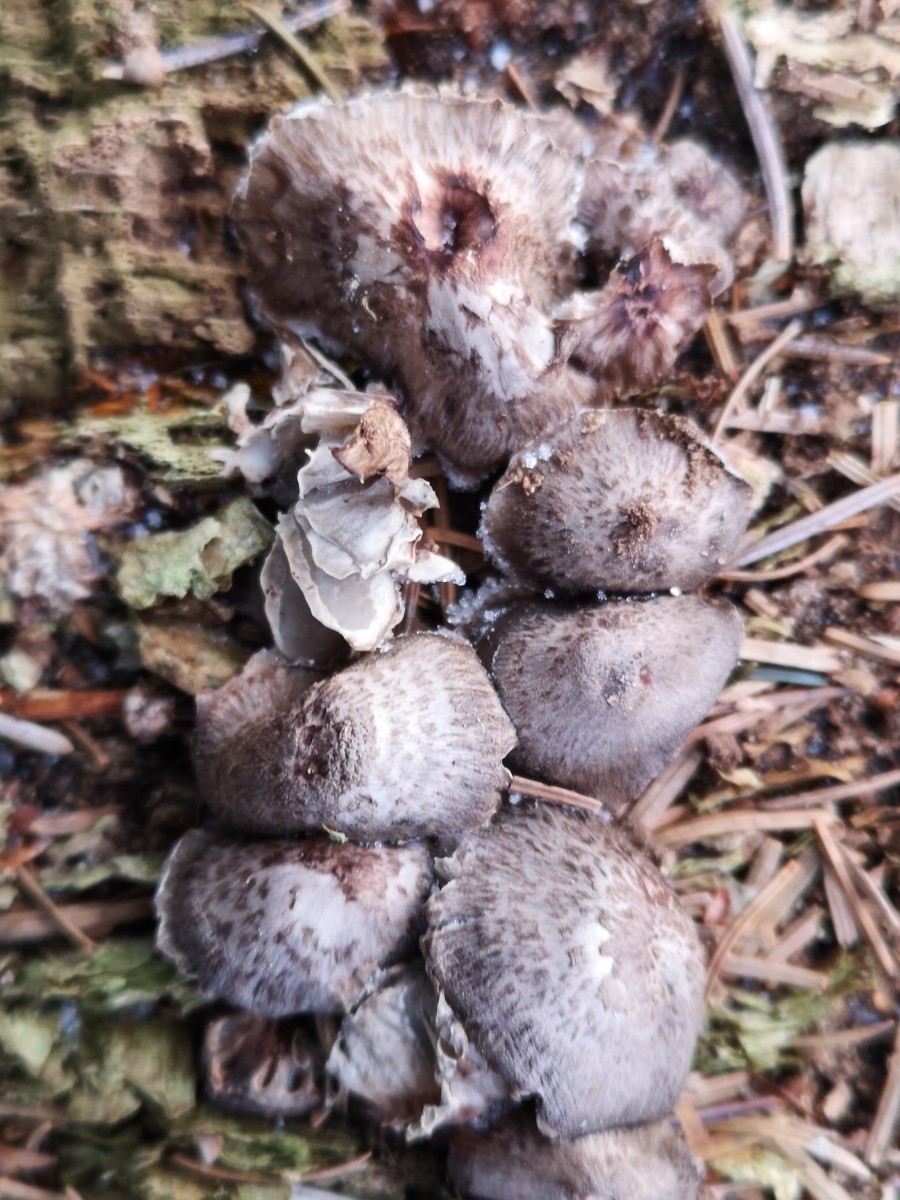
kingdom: Fungi
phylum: Basidiomycota
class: Agaricomycetes
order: Agaricales
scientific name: Agaricales
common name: champignonordenen
